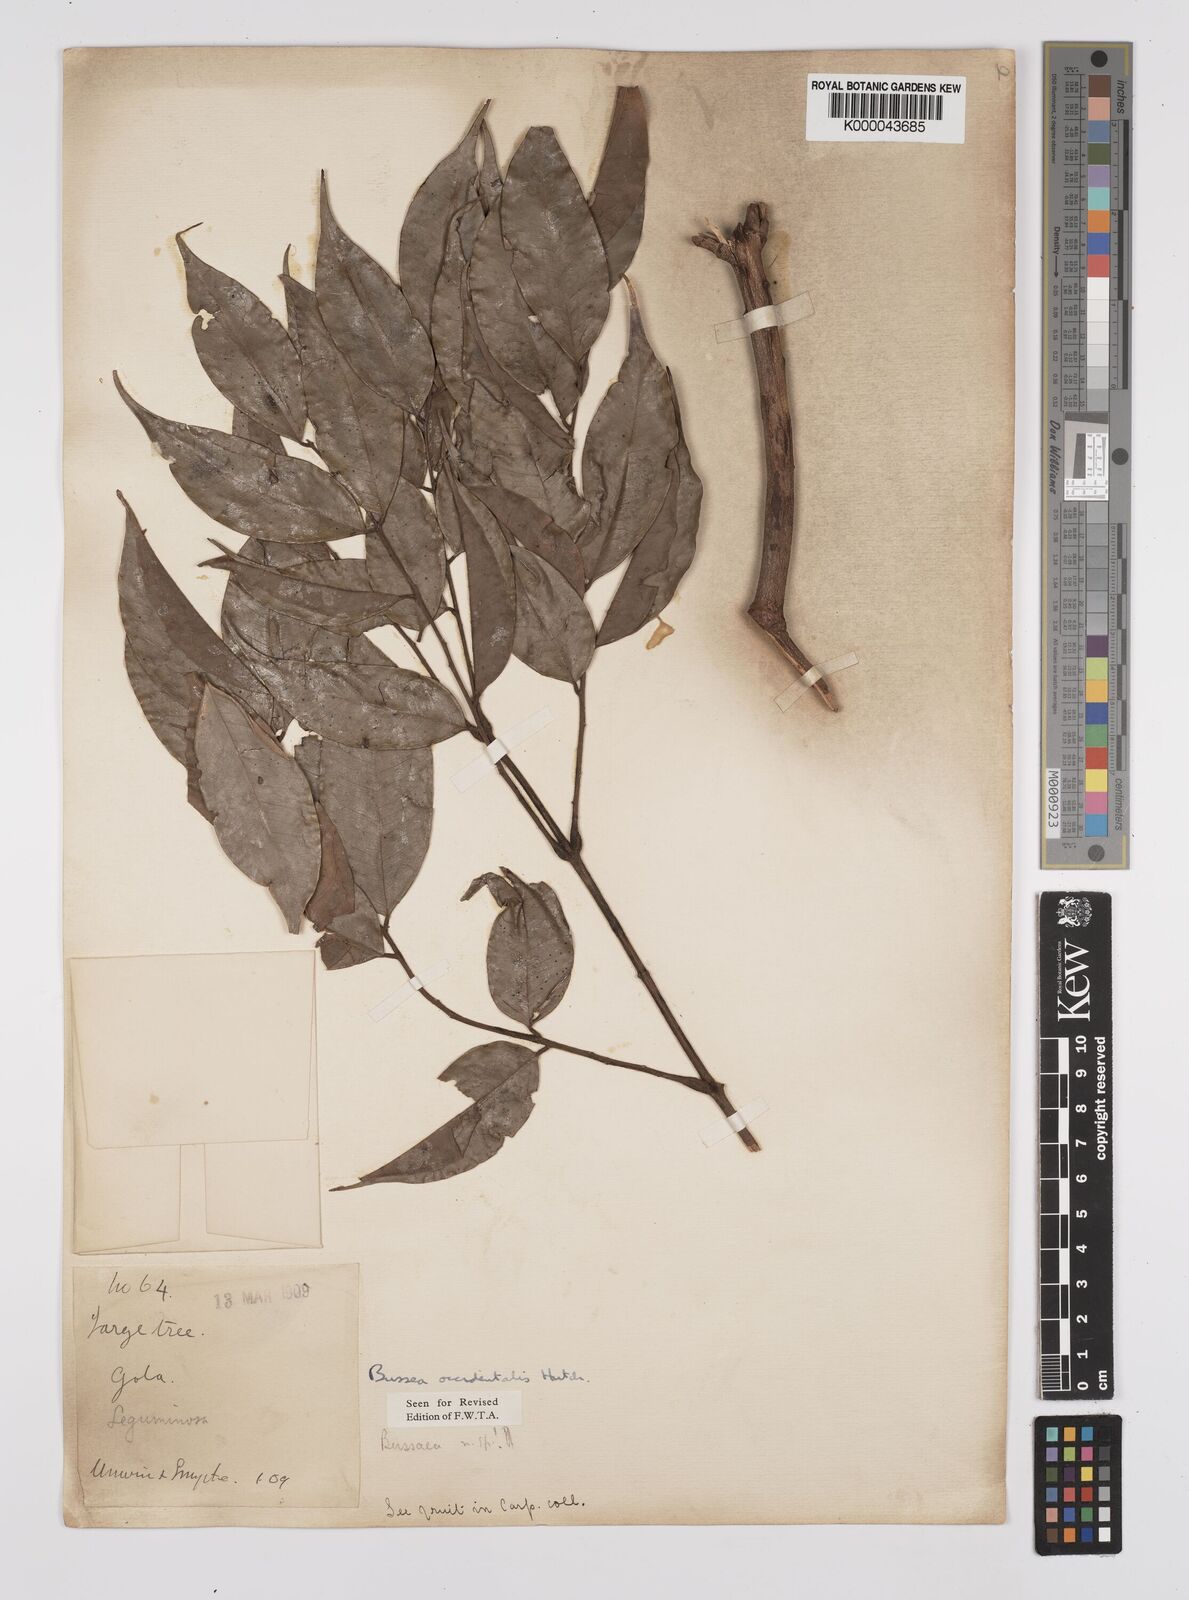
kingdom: Plantae
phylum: Tracheophyta
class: Magnoliopsida
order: Fabales
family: Fabaceae
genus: Bussea
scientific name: Bussea occidentalis
